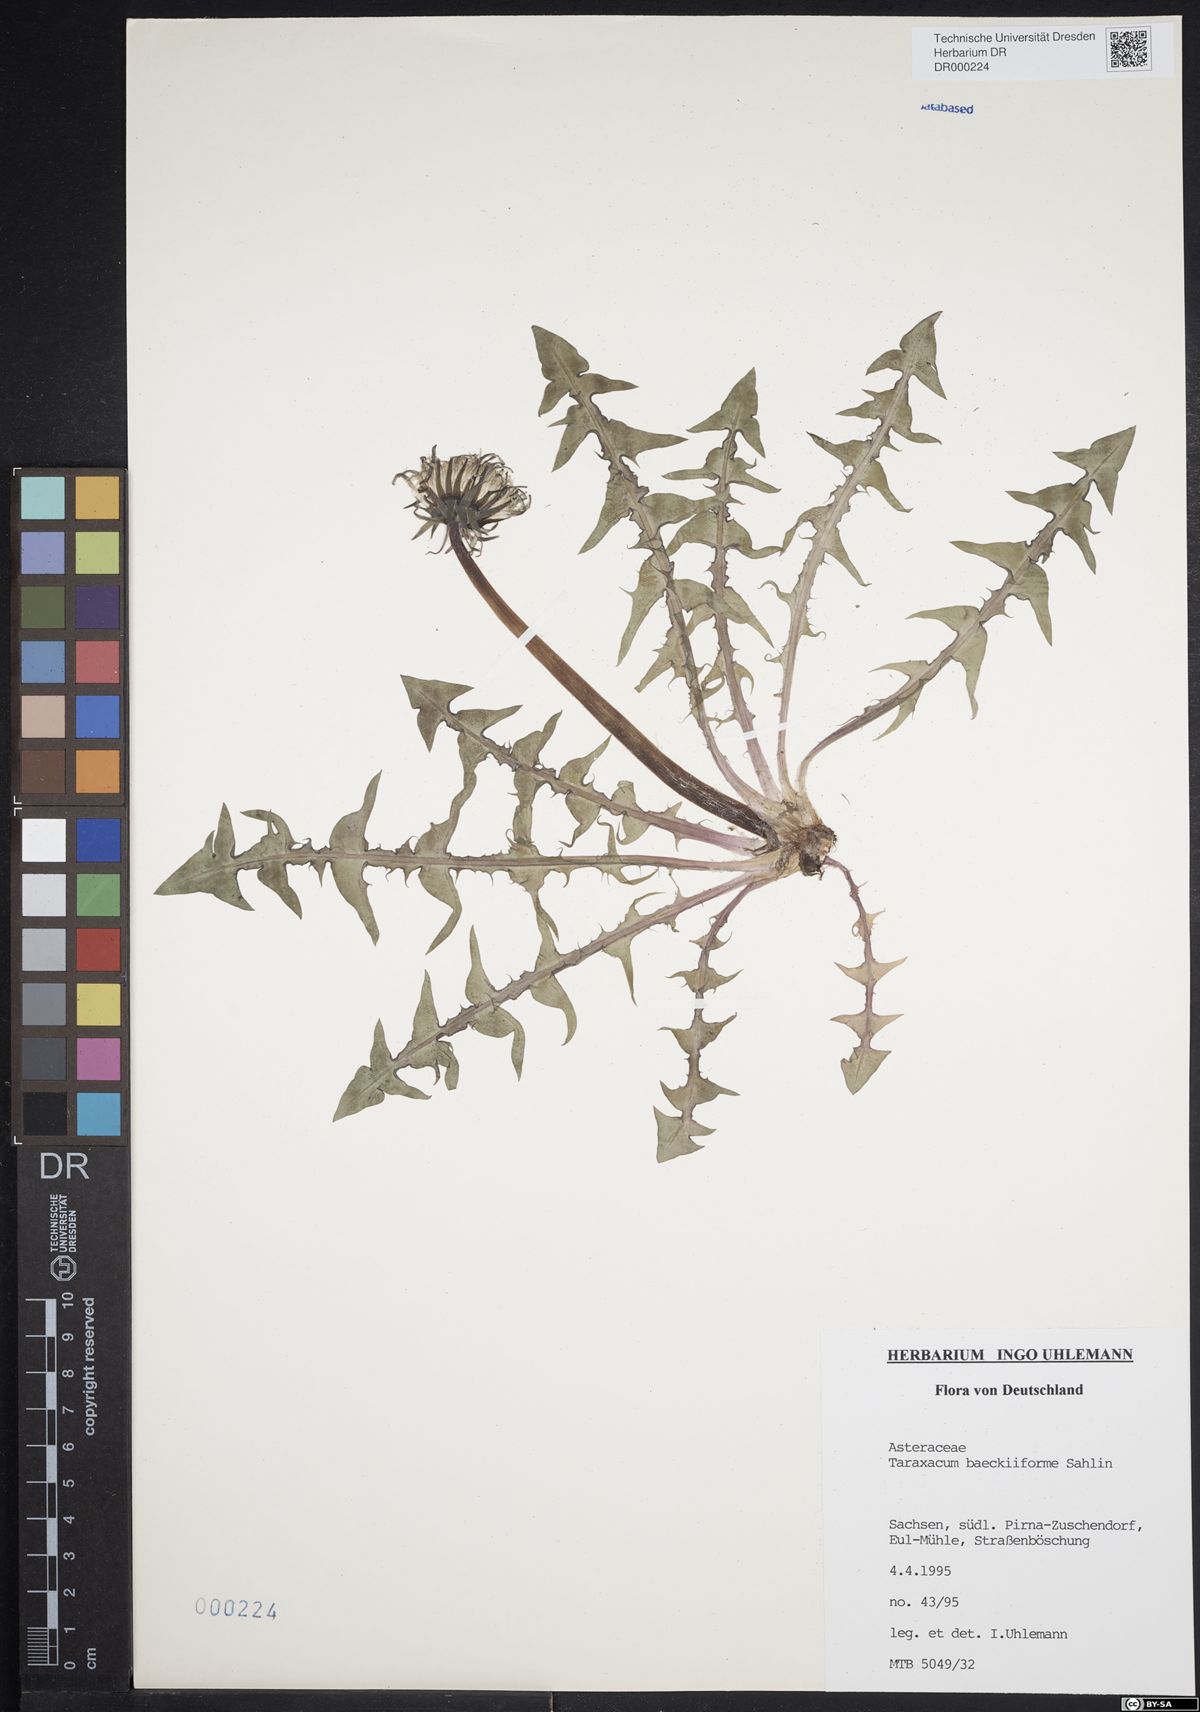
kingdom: Plantae
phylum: Tracheophyta
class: Magnoliopsida
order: Asterales
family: Asteraceae
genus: Taraxacum
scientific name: Taraxacum baeckiiforme
